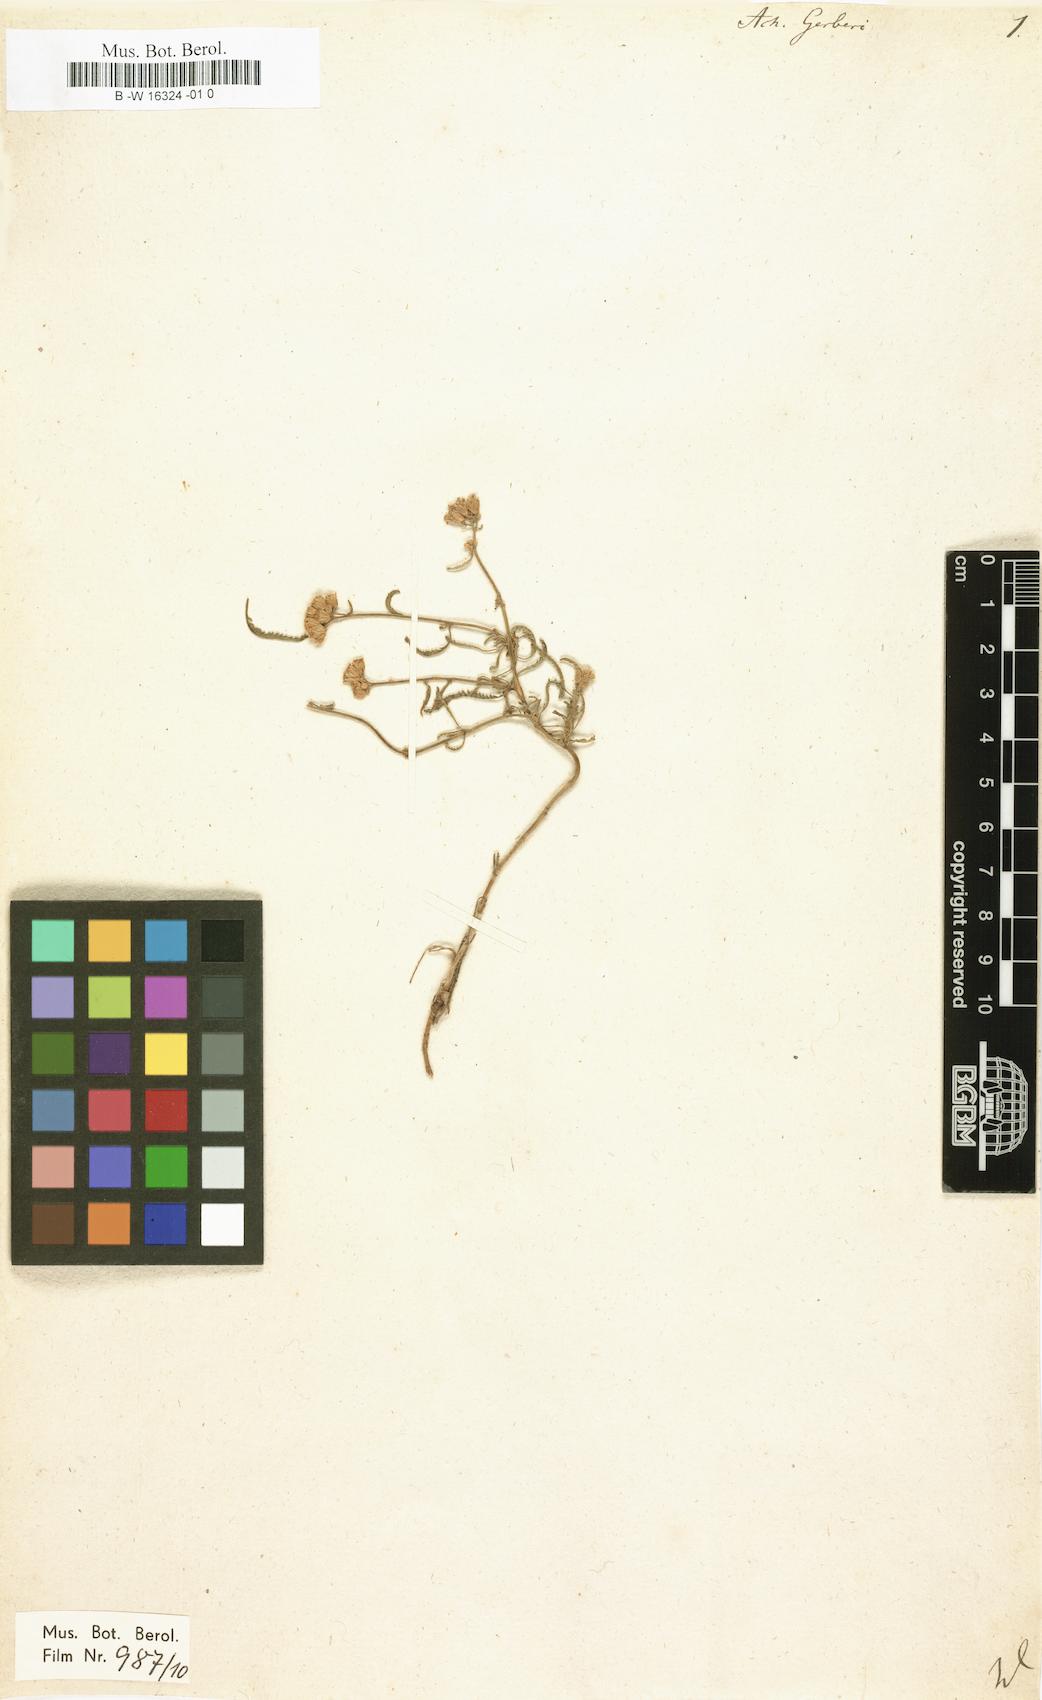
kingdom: Plantae
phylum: Tracheophyta
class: Magnoliopsida
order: Asterales
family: Asteraceae
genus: Achillea
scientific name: Achillea micrantha
